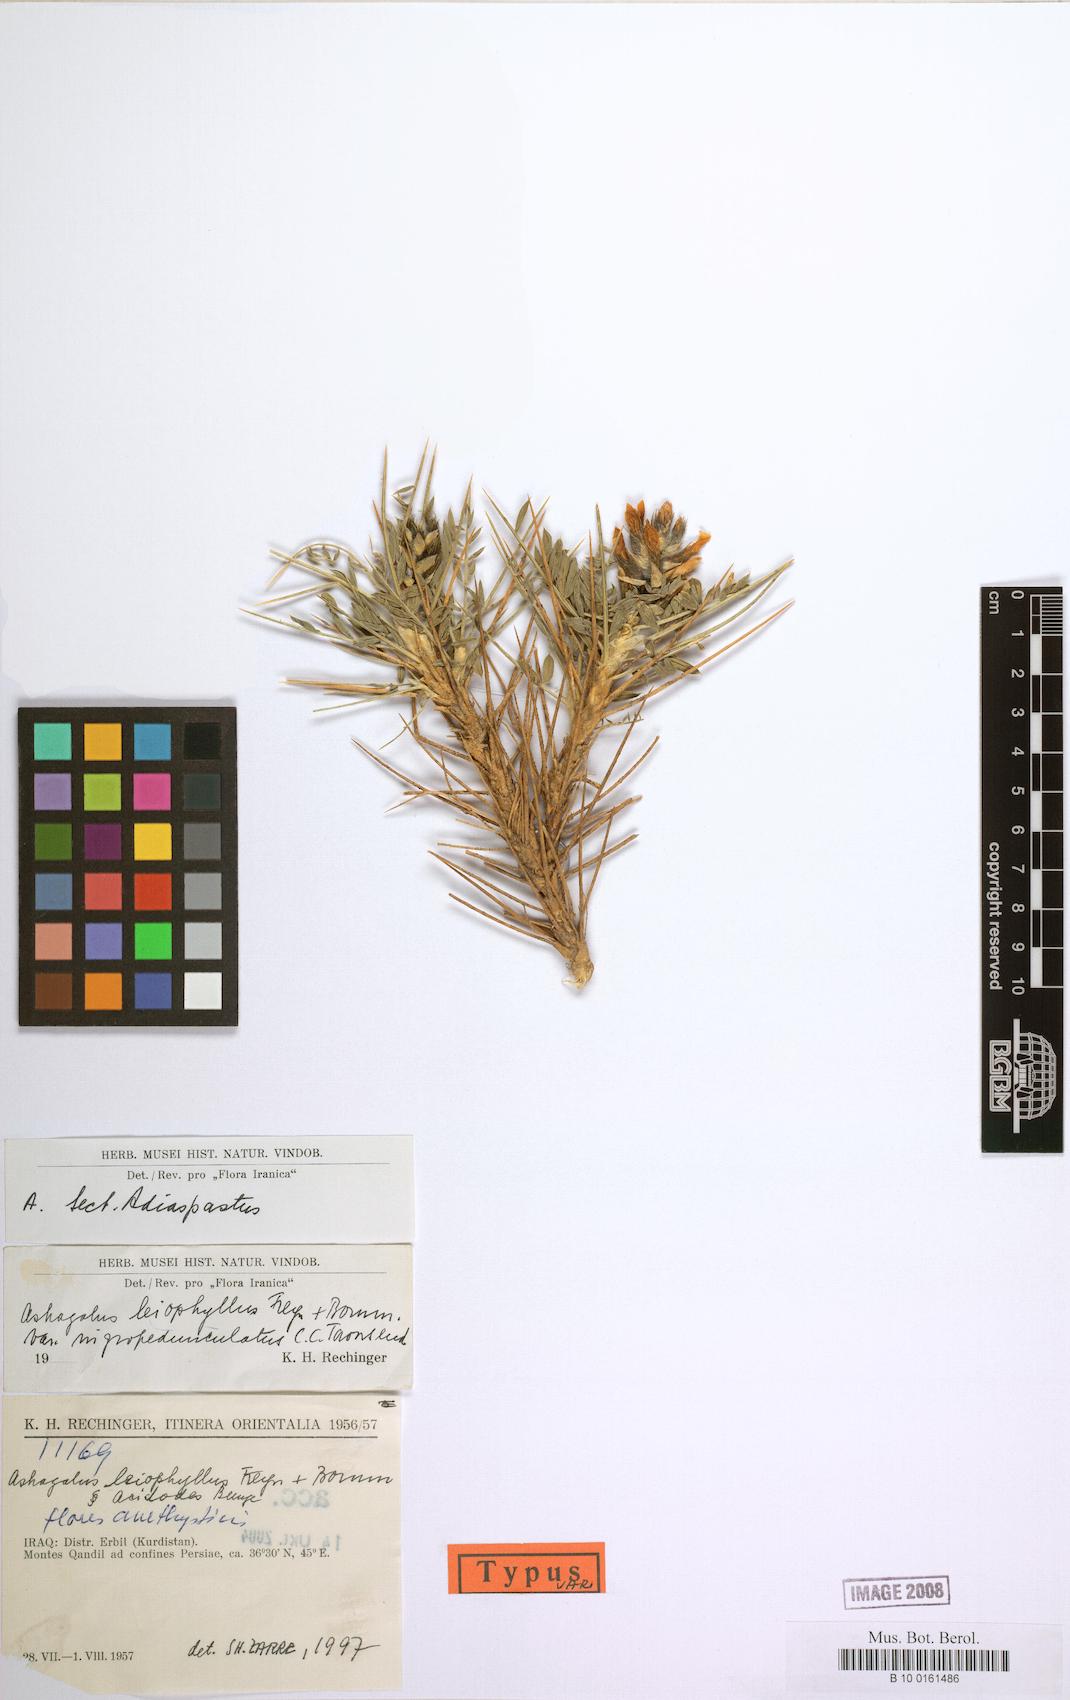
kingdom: Plantae
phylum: Tracheophyta
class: Magnoliopsida
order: Fabales
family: Fabaceae
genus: Astragalus
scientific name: Astragalus leiophyllus
